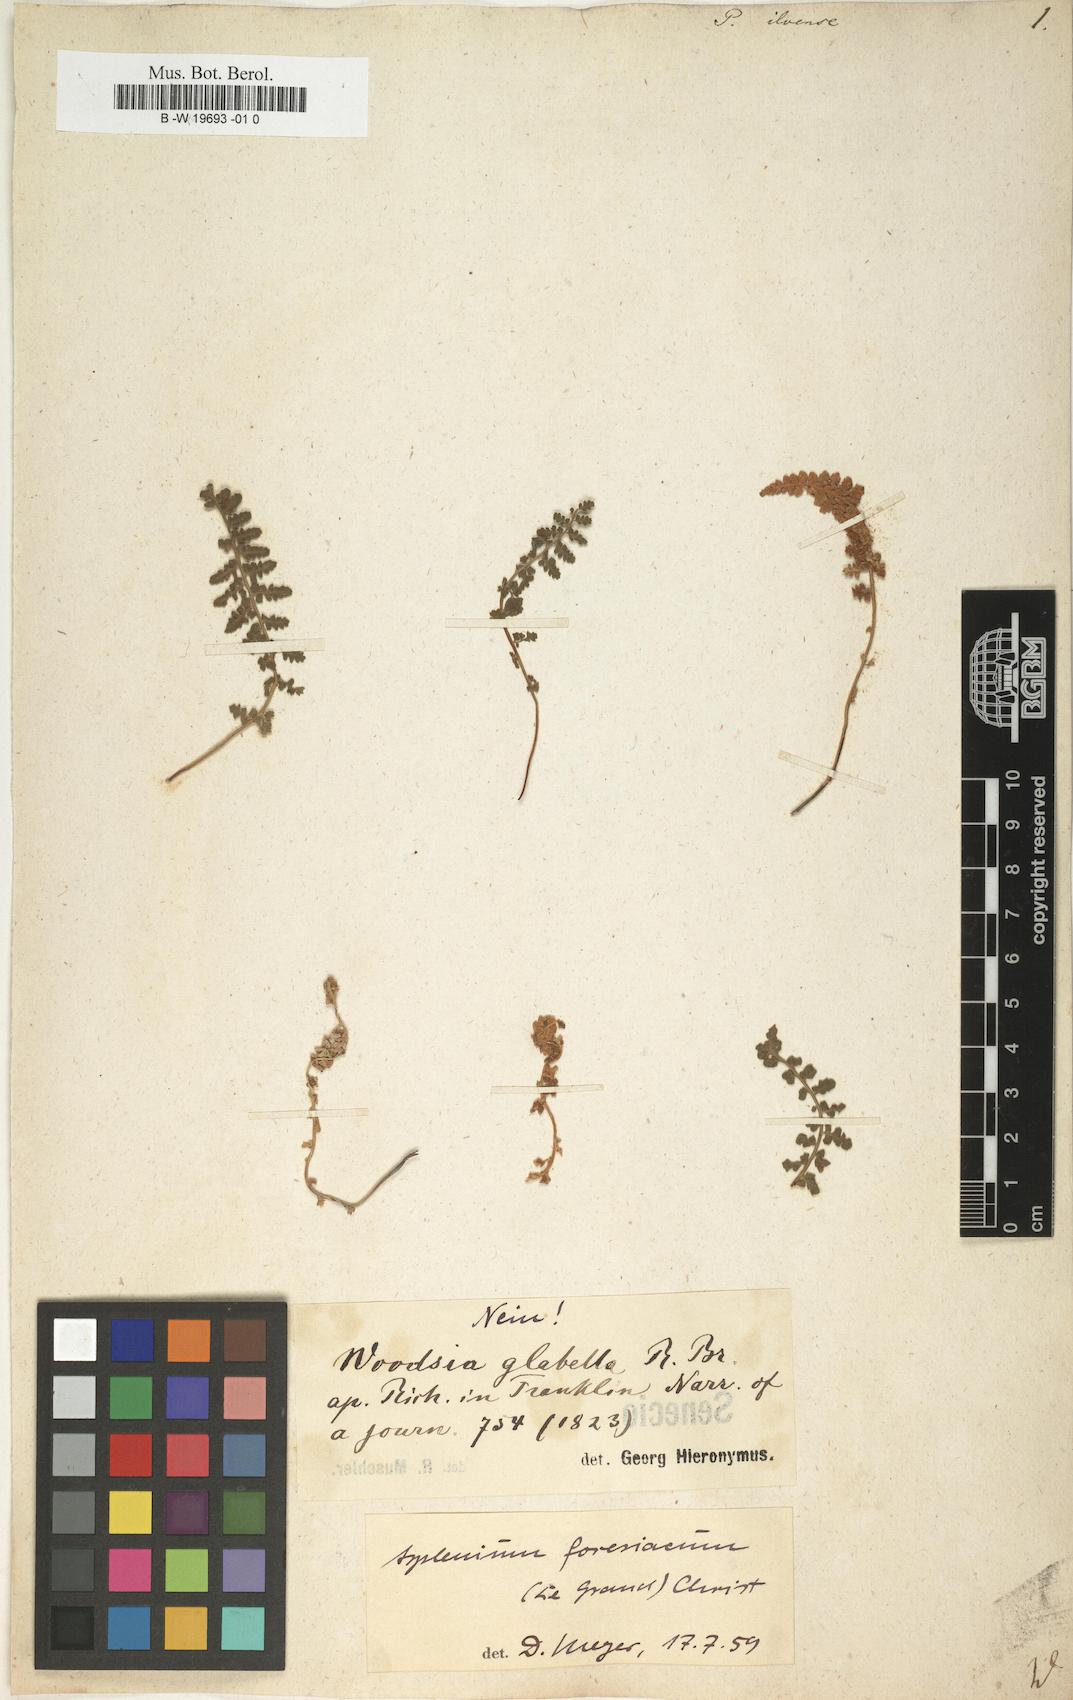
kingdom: Plantae
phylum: Tracheophyta
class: Polypodiopsida
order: Polypodiales
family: Woodsiaceae
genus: Woodsia
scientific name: Woodsia ilvensis
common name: Fragrant woodsia
